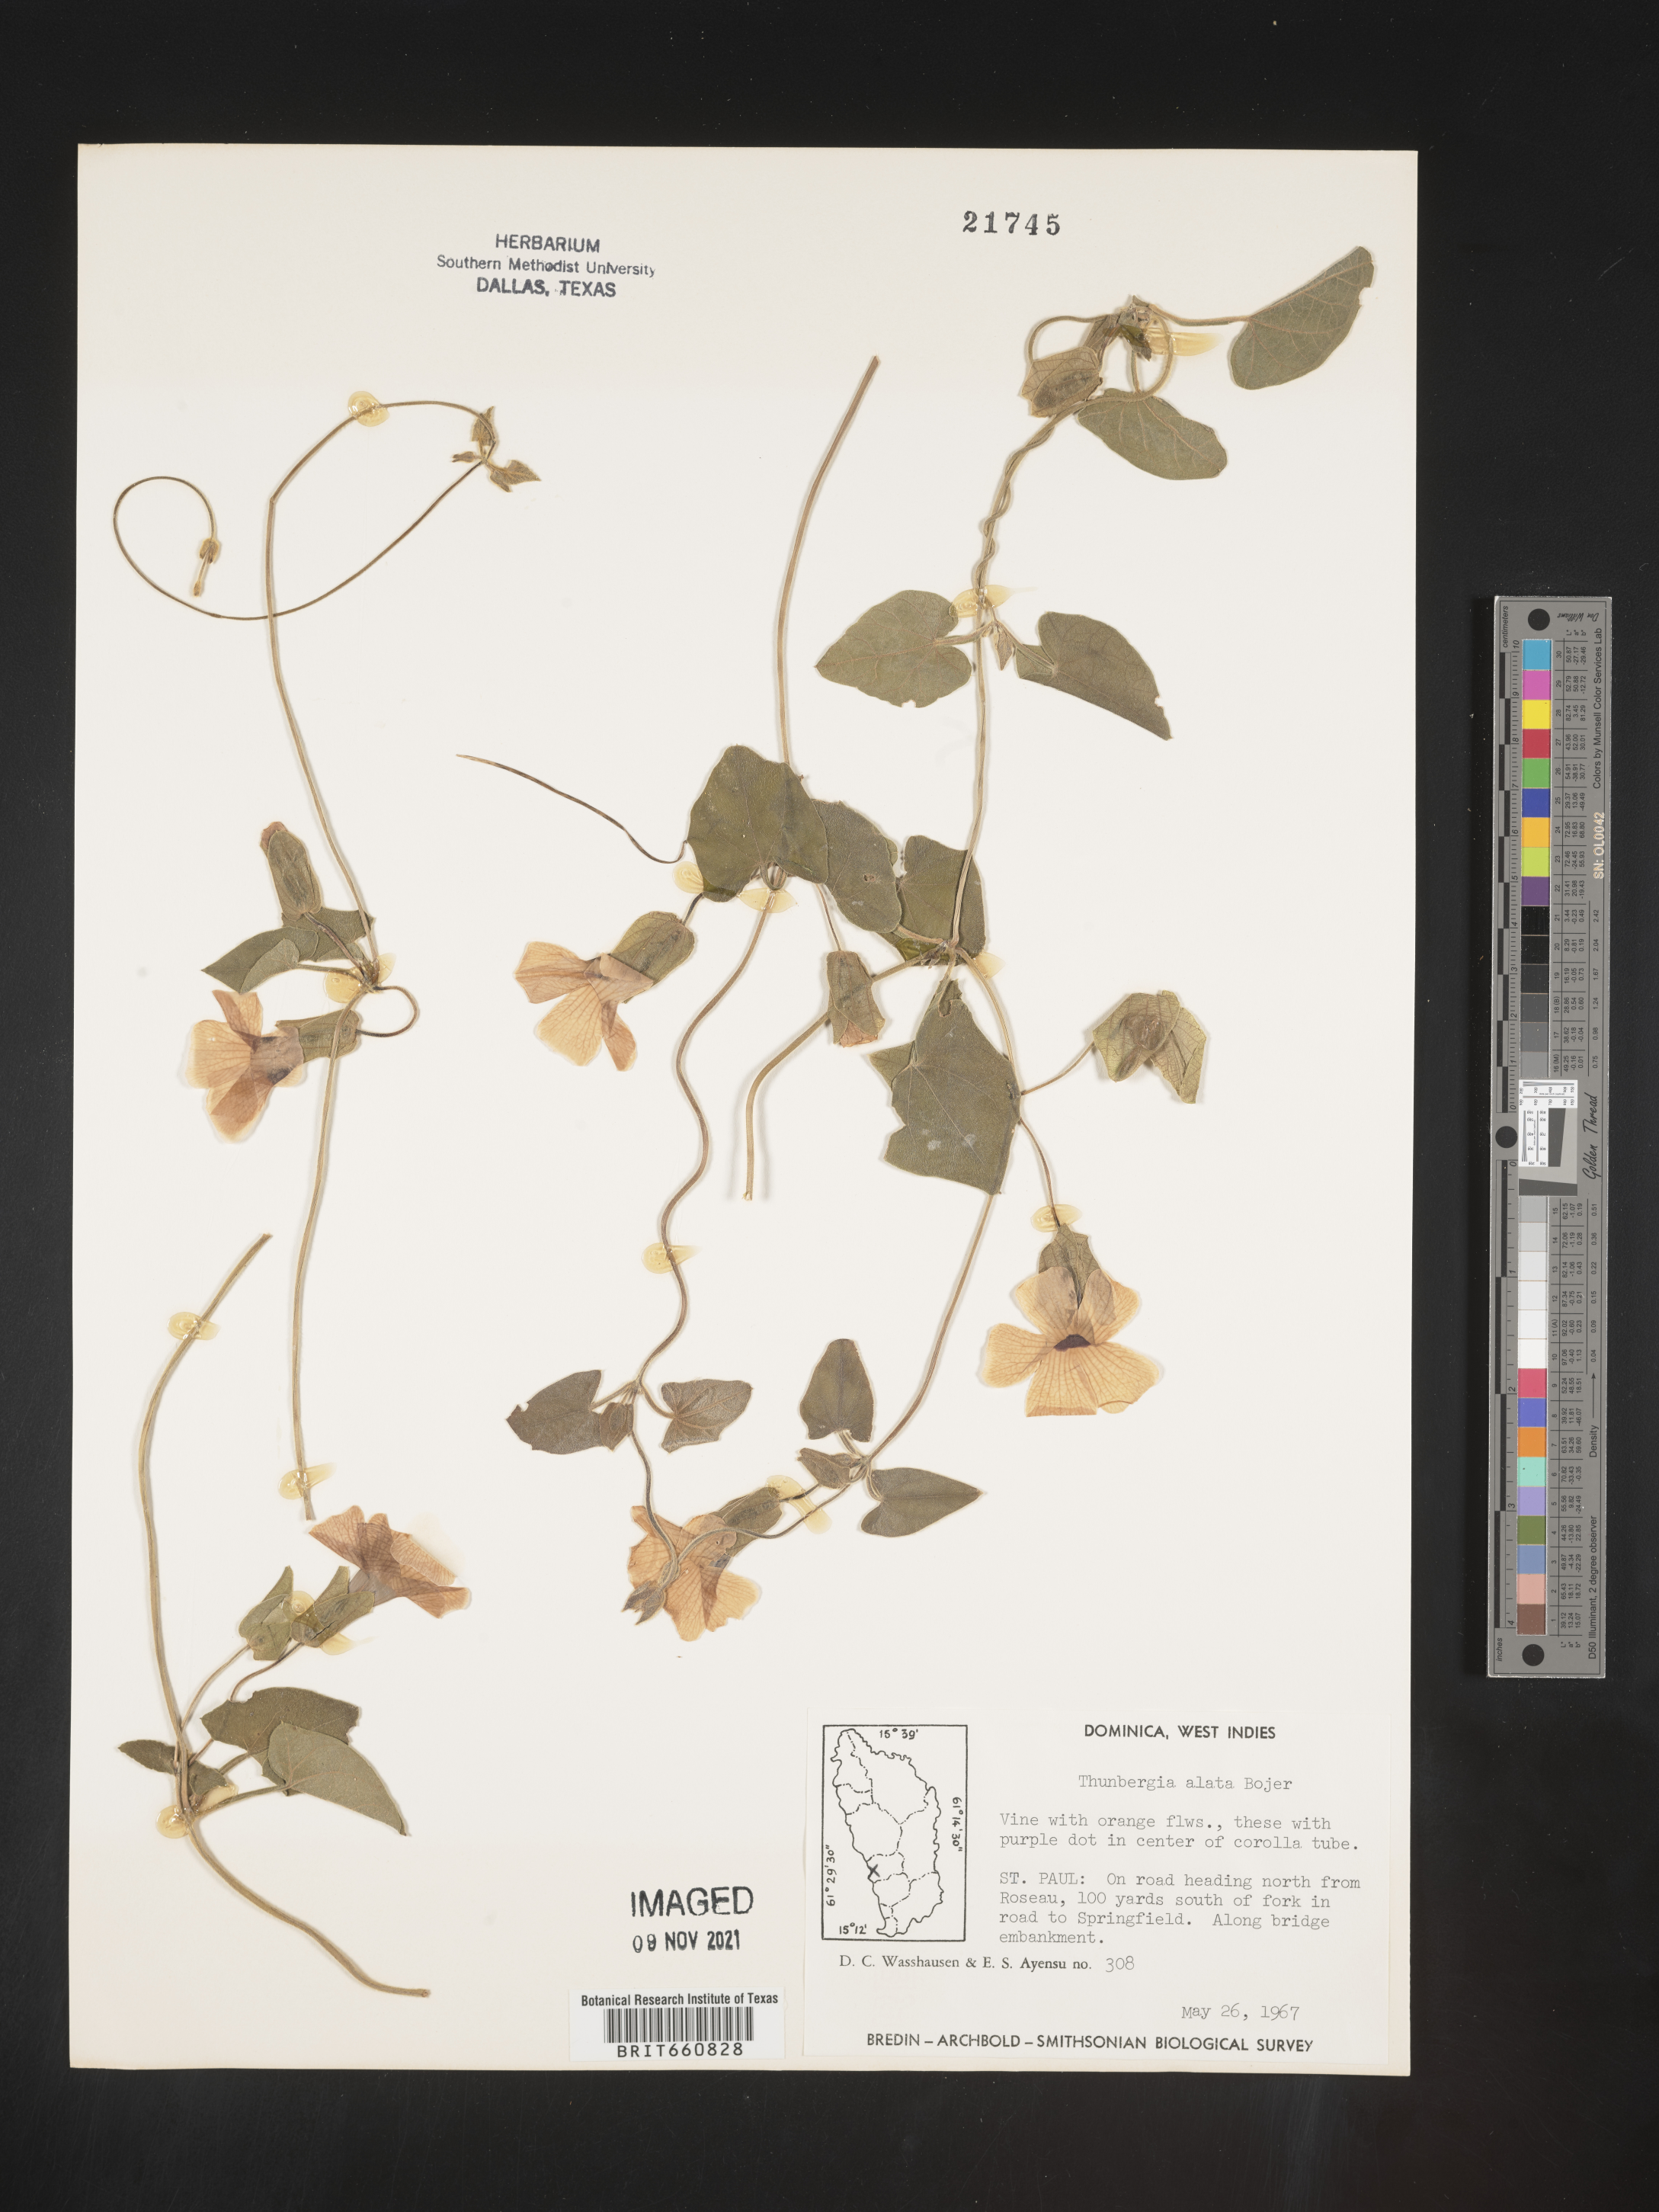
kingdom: Plantae
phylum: Tracheophyta
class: Magnoliopsida
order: Lamiales
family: Acanthaceae
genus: Thunbergia
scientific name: Thunbergia
